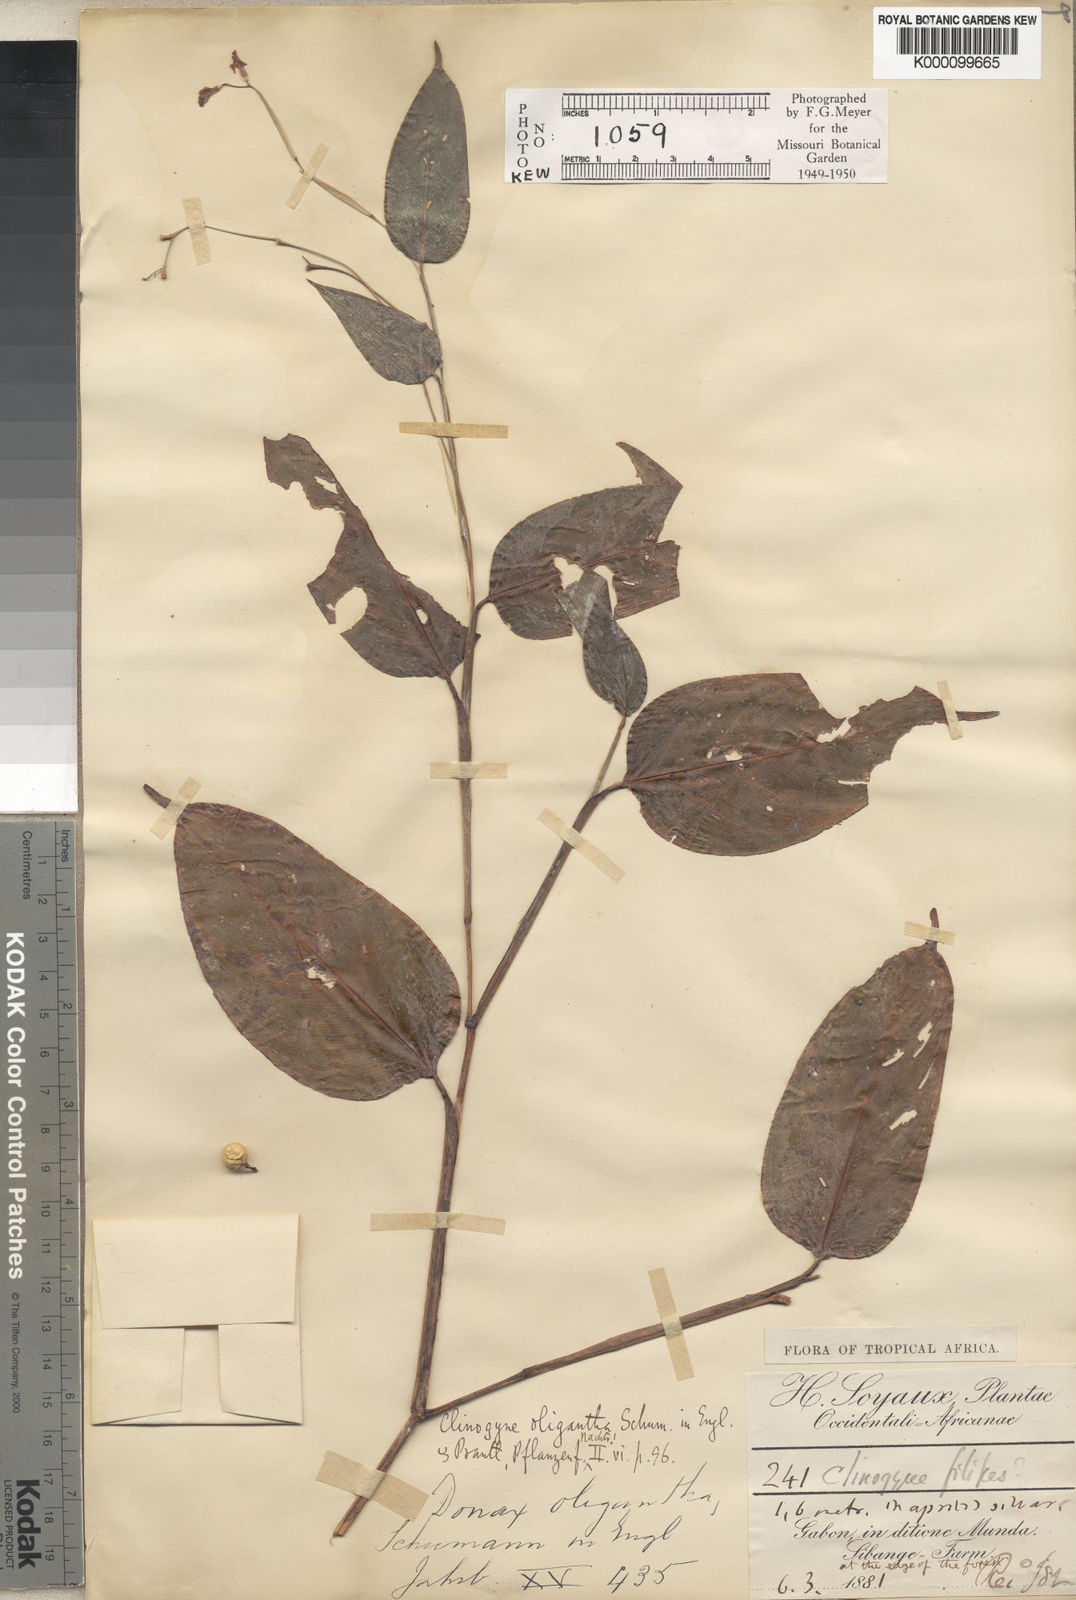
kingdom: Plantae
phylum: Tracheophyta
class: Liliopsida
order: Zingiberales
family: Marantaceae
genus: Marantochloa
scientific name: Marantochloa filipes
